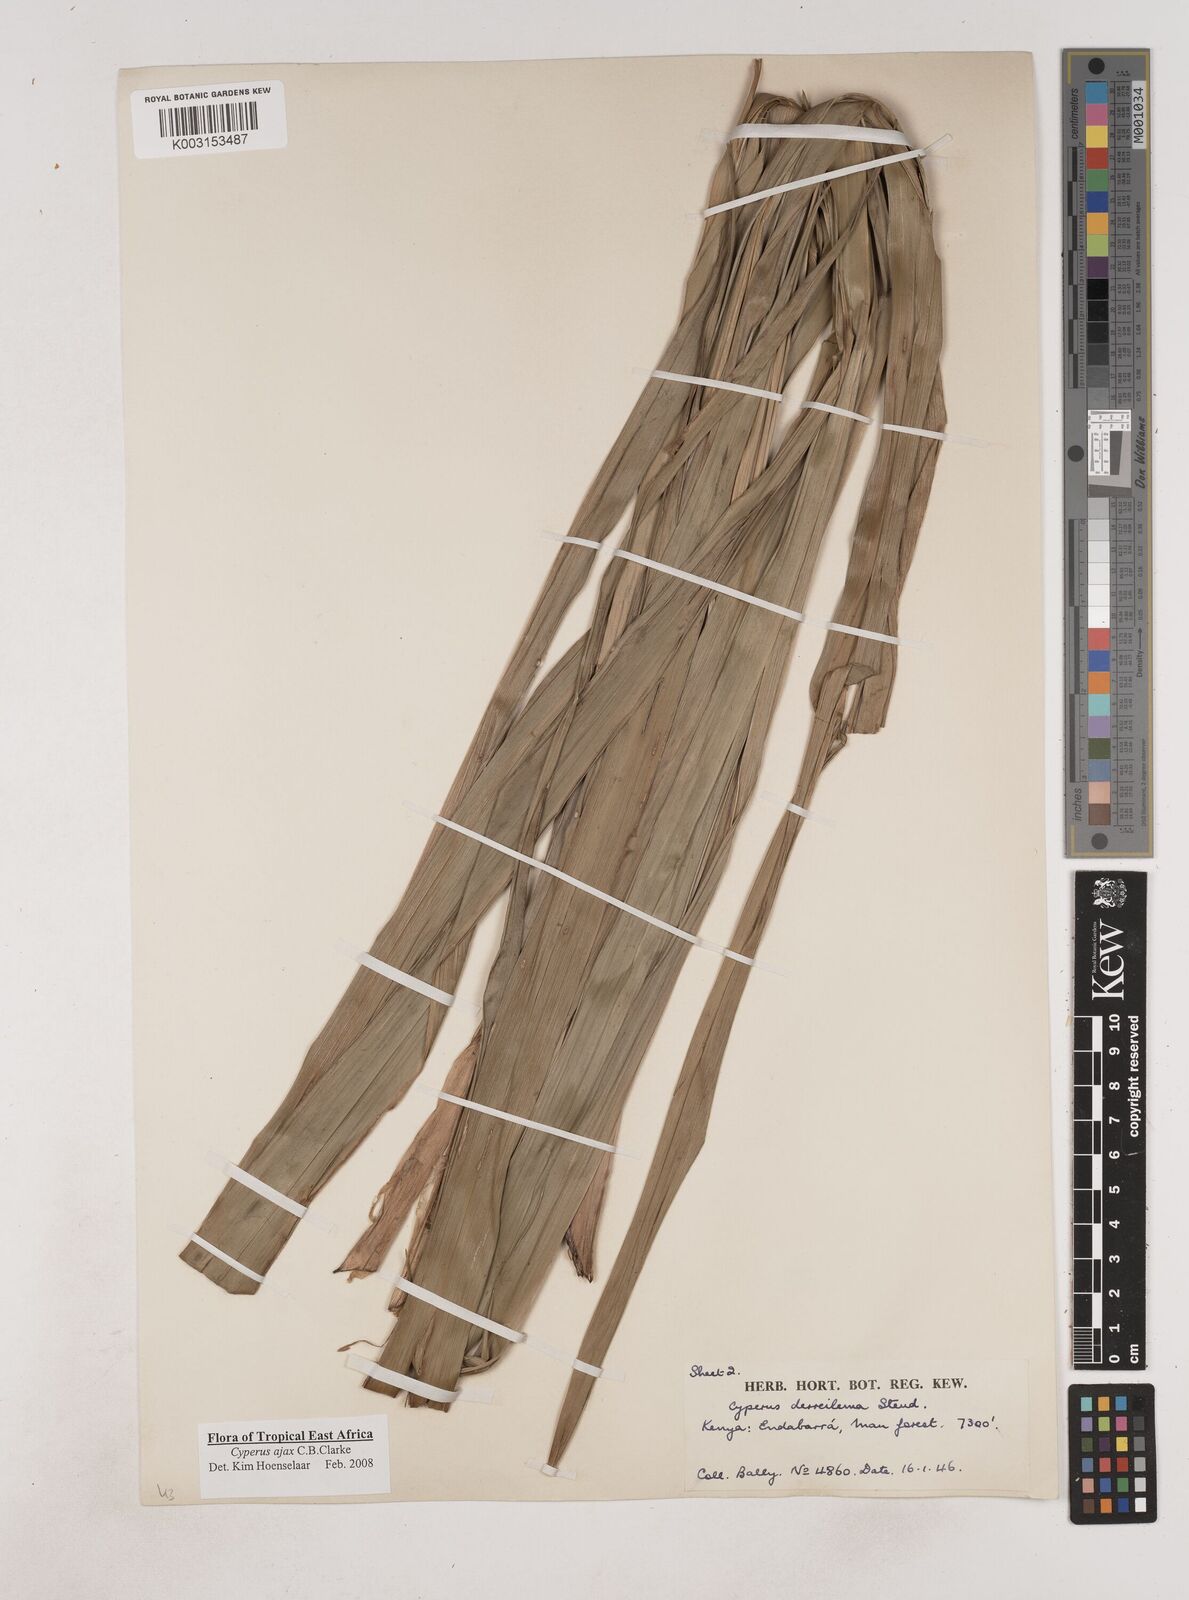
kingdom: Plantae
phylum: Tracheophyta
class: Liliopsida
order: Poales
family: Cyperaceae
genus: Cyperus
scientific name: Cyperus ajax
